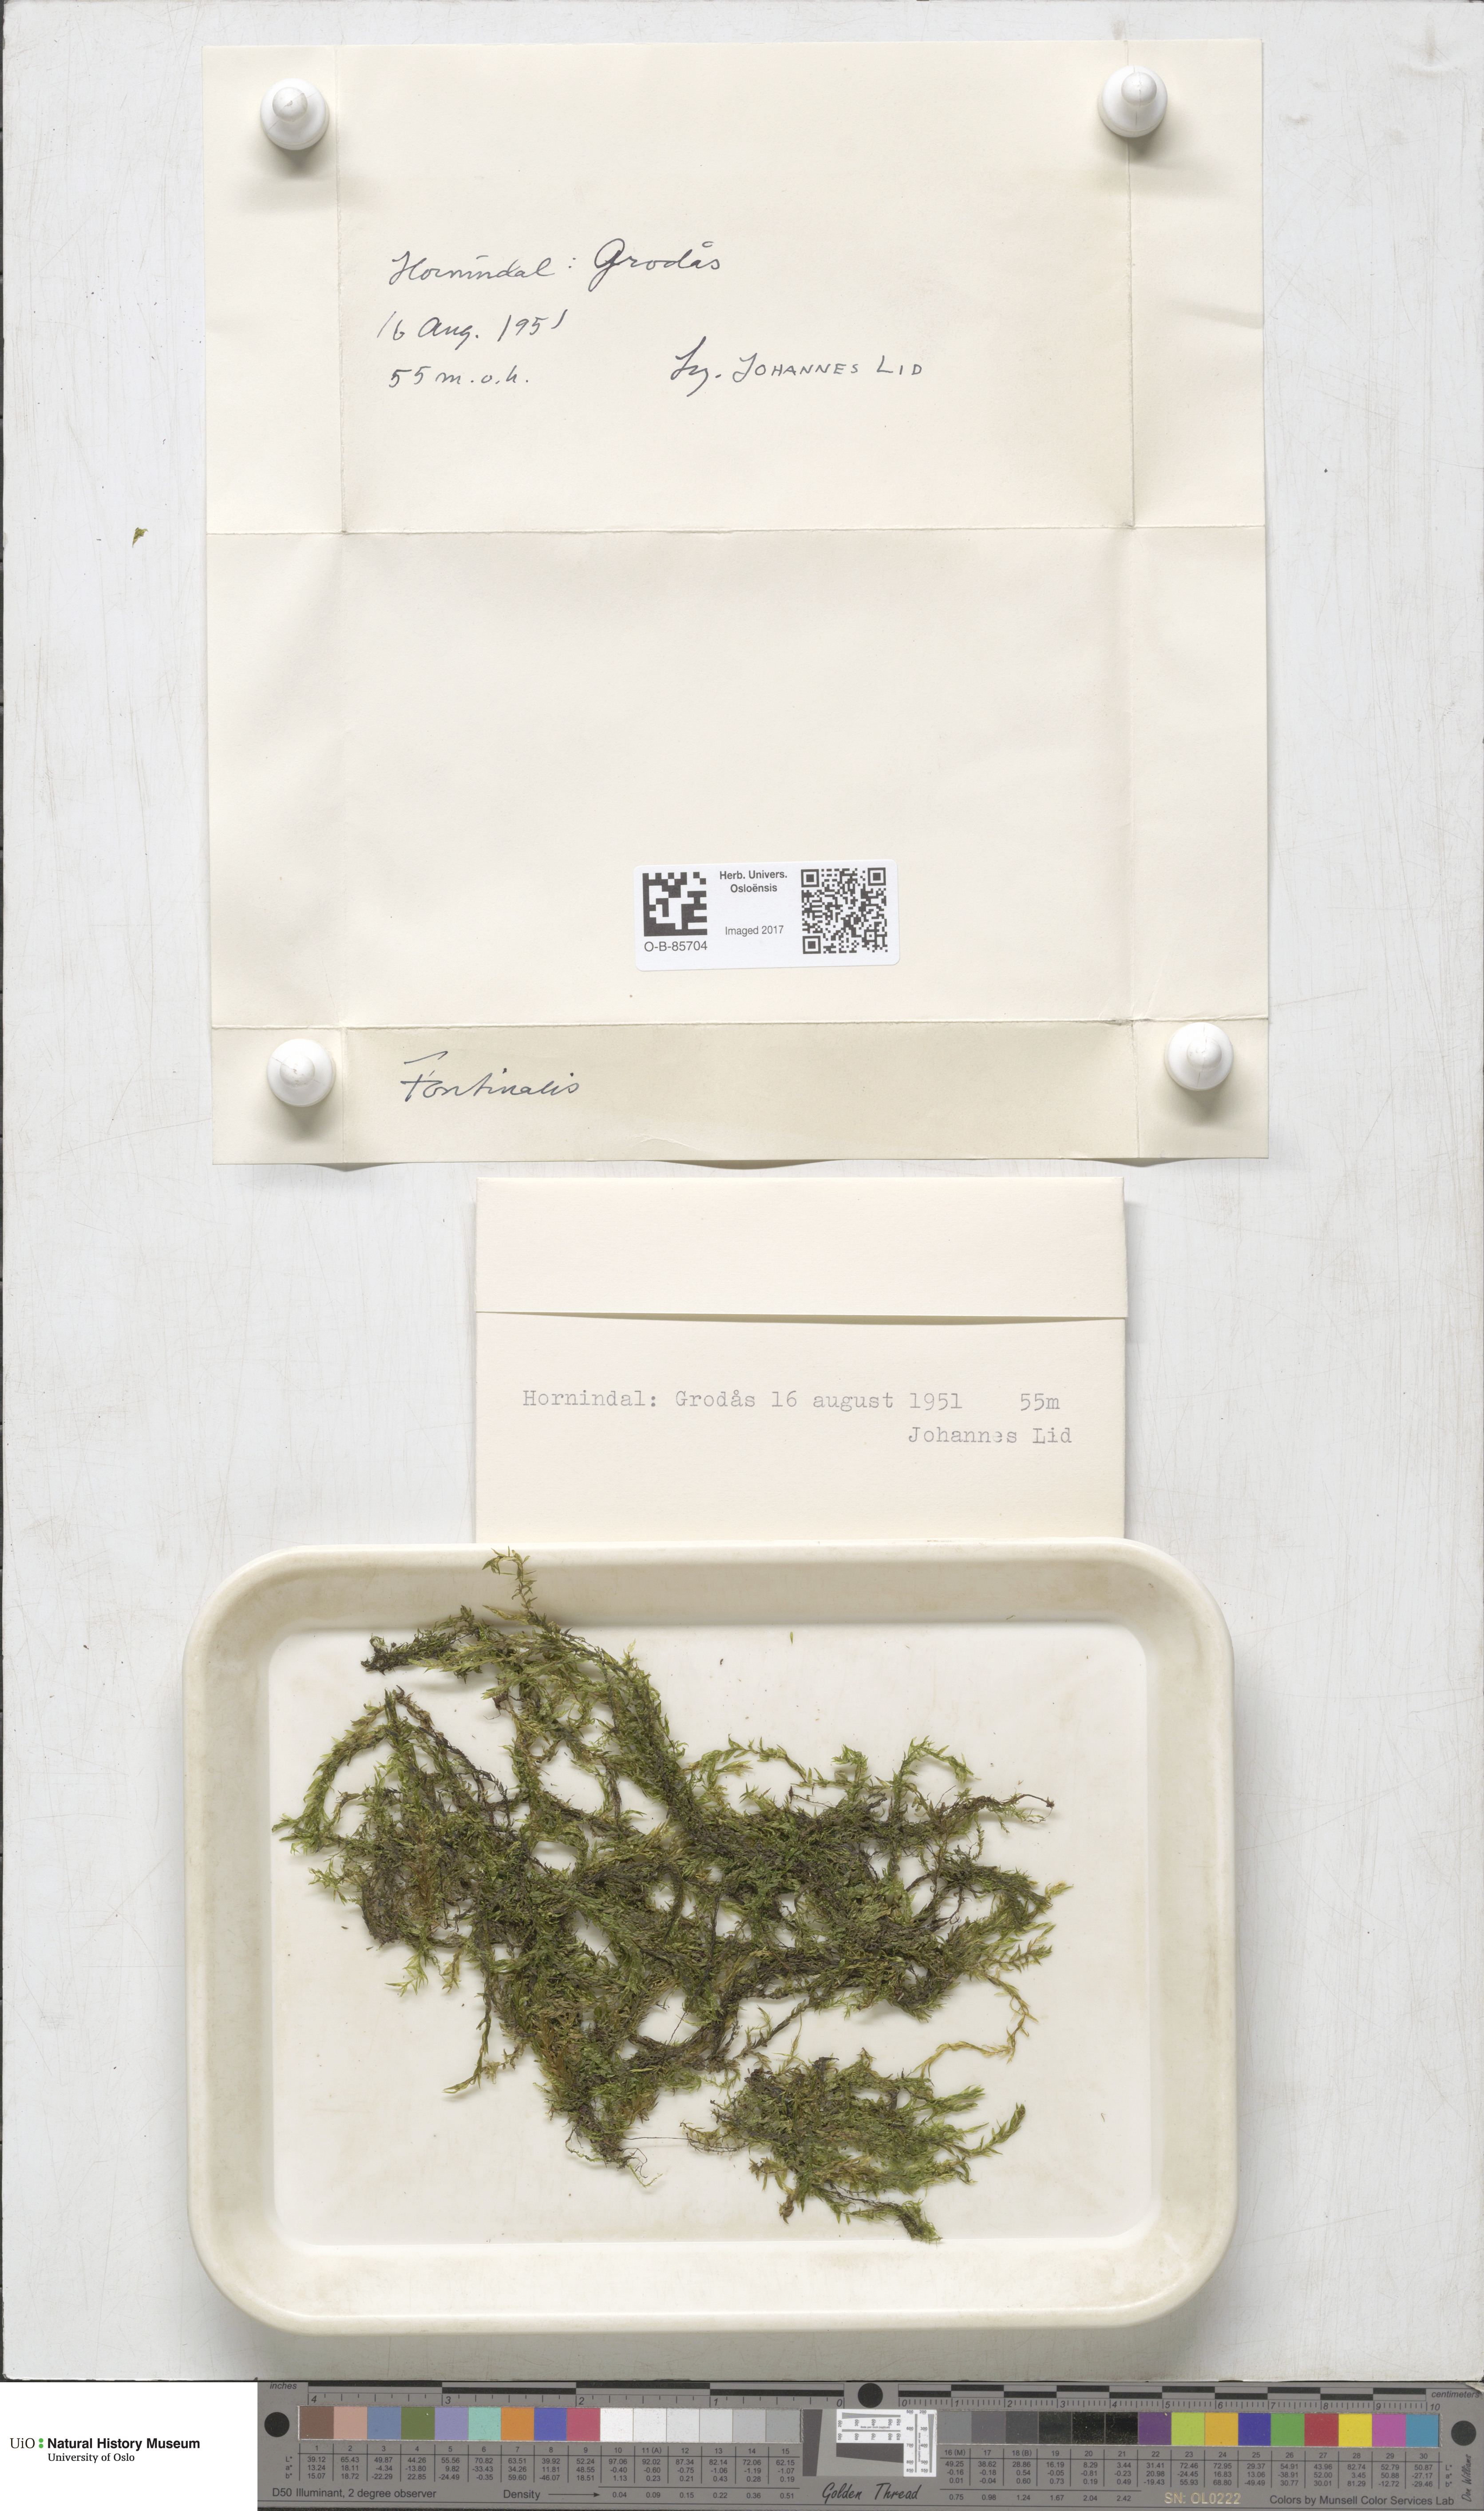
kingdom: Plantae
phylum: Bryophyta
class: Bryopsida
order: Hypnales
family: Fontinalaceae
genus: Fontinalis
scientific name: Fontinalis
